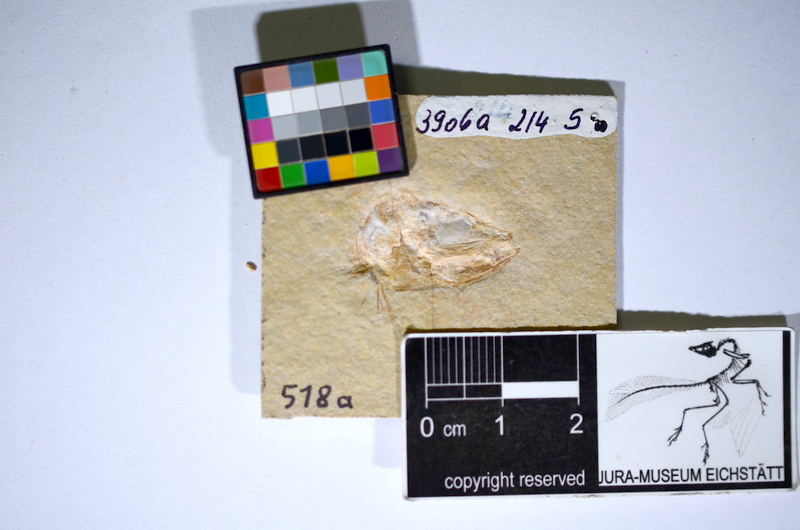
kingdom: Animalia
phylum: Chordata
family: Ascalaboidae
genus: Tharsis
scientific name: Tharsis dubius
